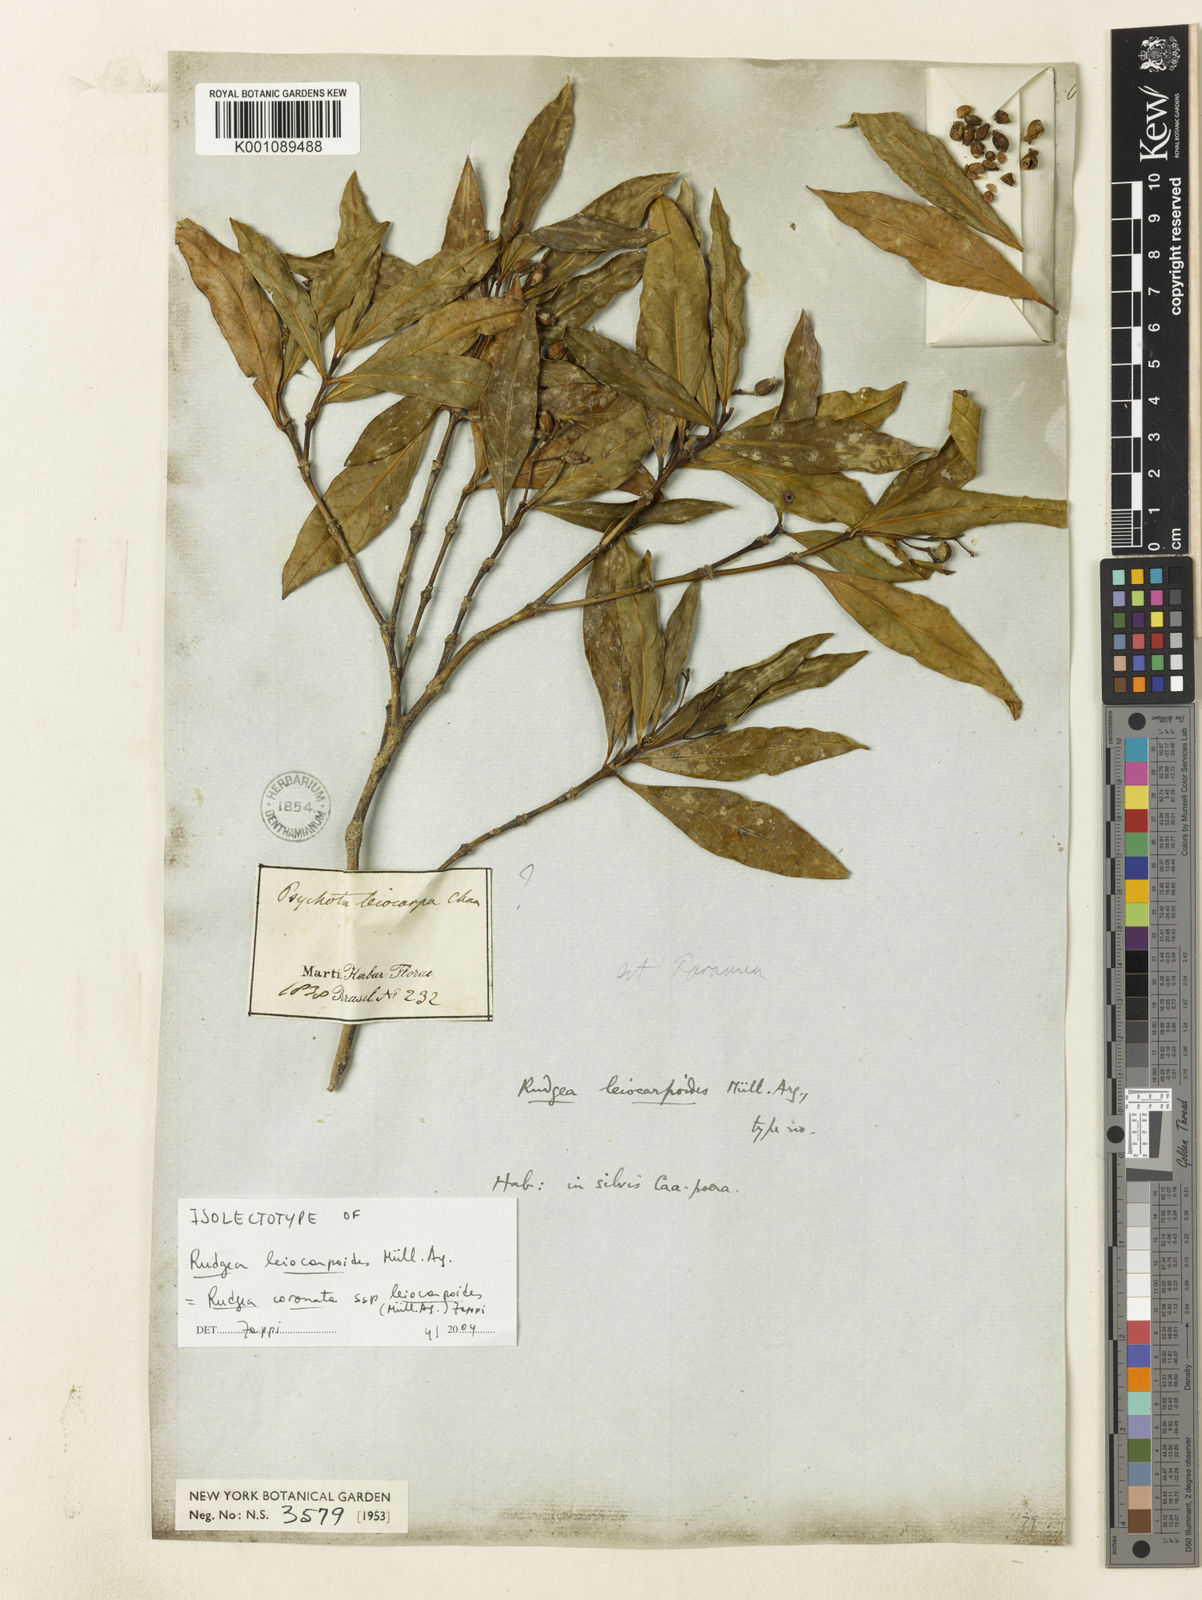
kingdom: Plantae
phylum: Tracheophyta
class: Magnoliopsida
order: Gentianales
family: Rubiaceae
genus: Rudgea
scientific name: Rudgea
